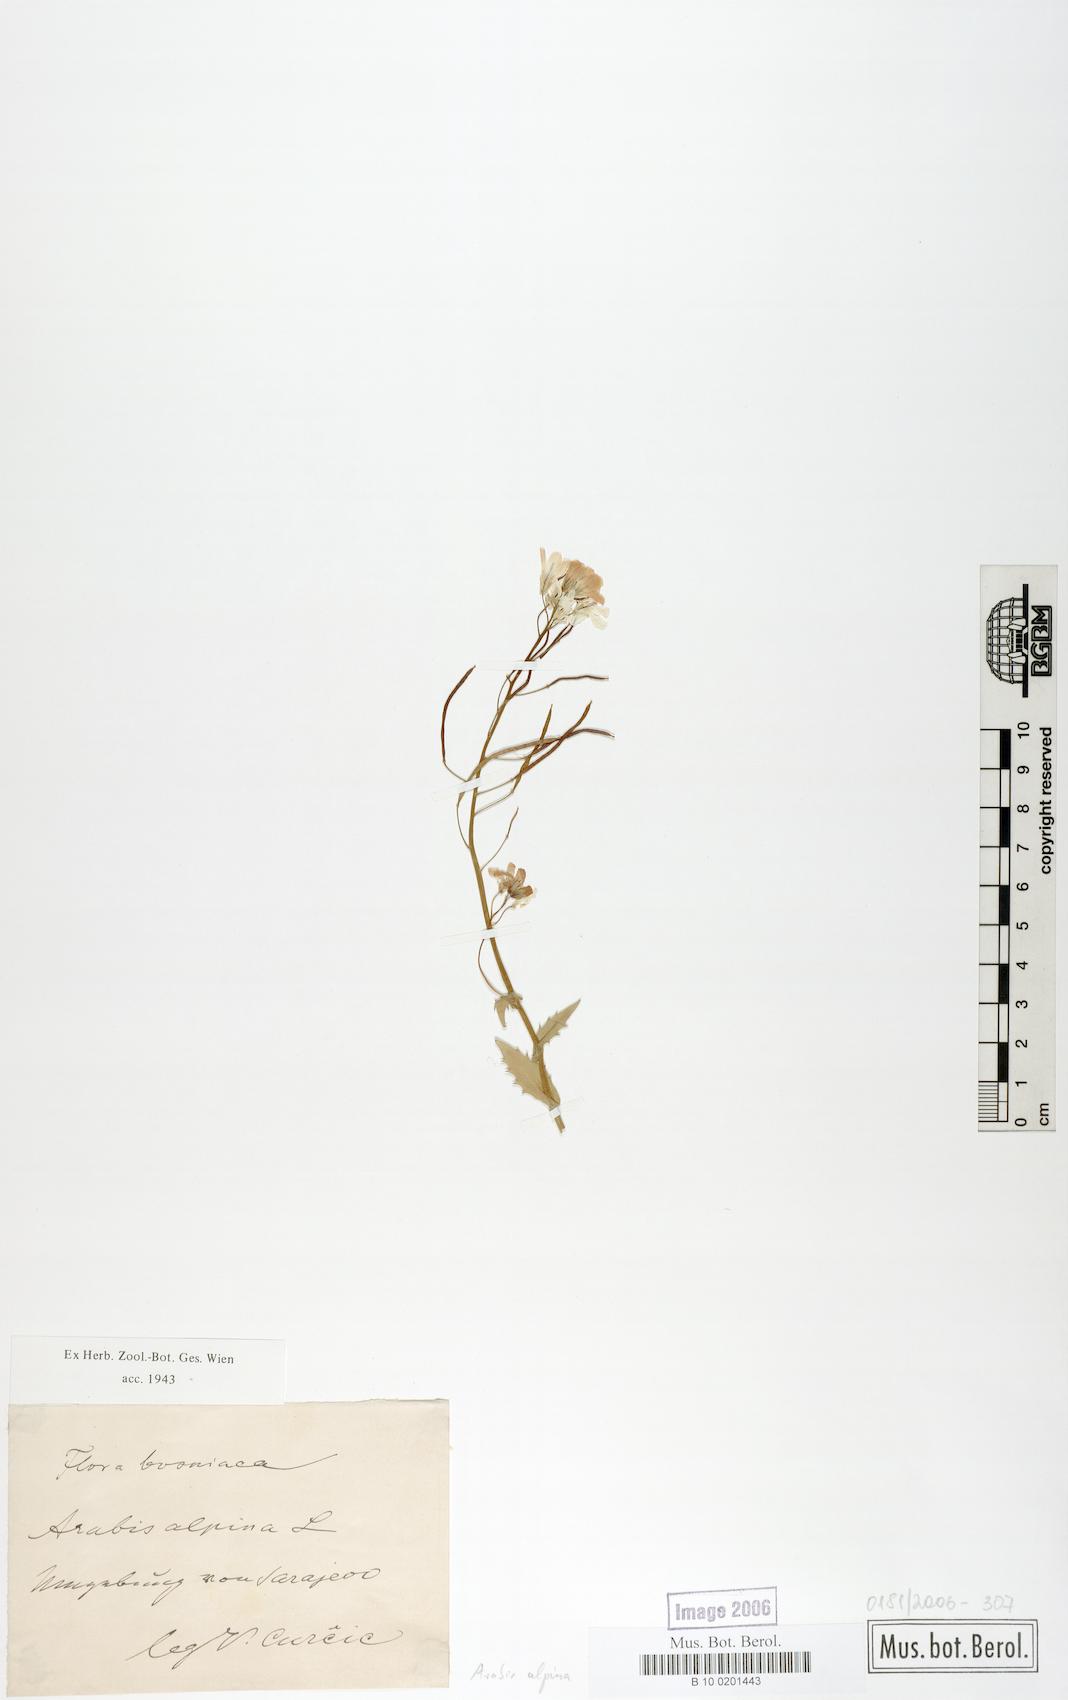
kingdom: Plantae
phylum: Tracheophyta
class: Magnoliopsida
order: Brassicales
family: Brassicaceae
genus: Arabis
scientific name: Arabis alpina
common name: Alpine rock-cress
